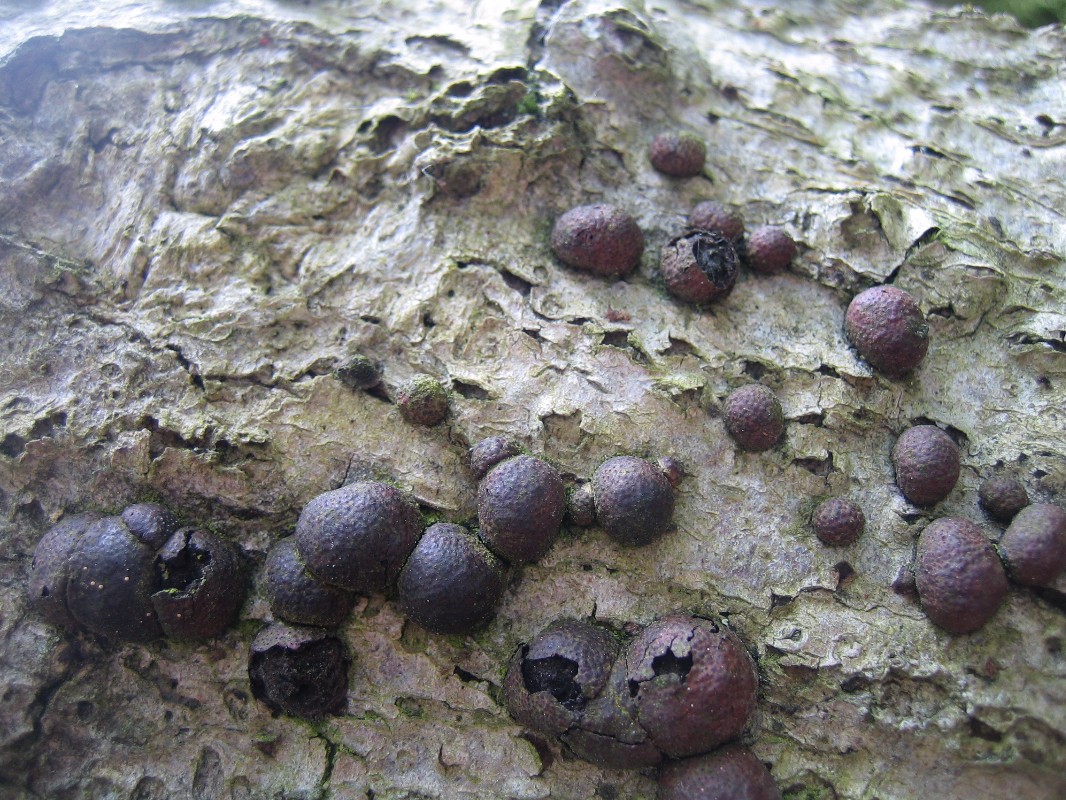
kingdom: Fungi
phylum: Ascomycota
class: Sordariomycetes
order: Xylariales
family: Hypoxylaceae
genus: Hypoxylon
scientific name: Hypoxylon fragiforme
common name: kuljordbær
